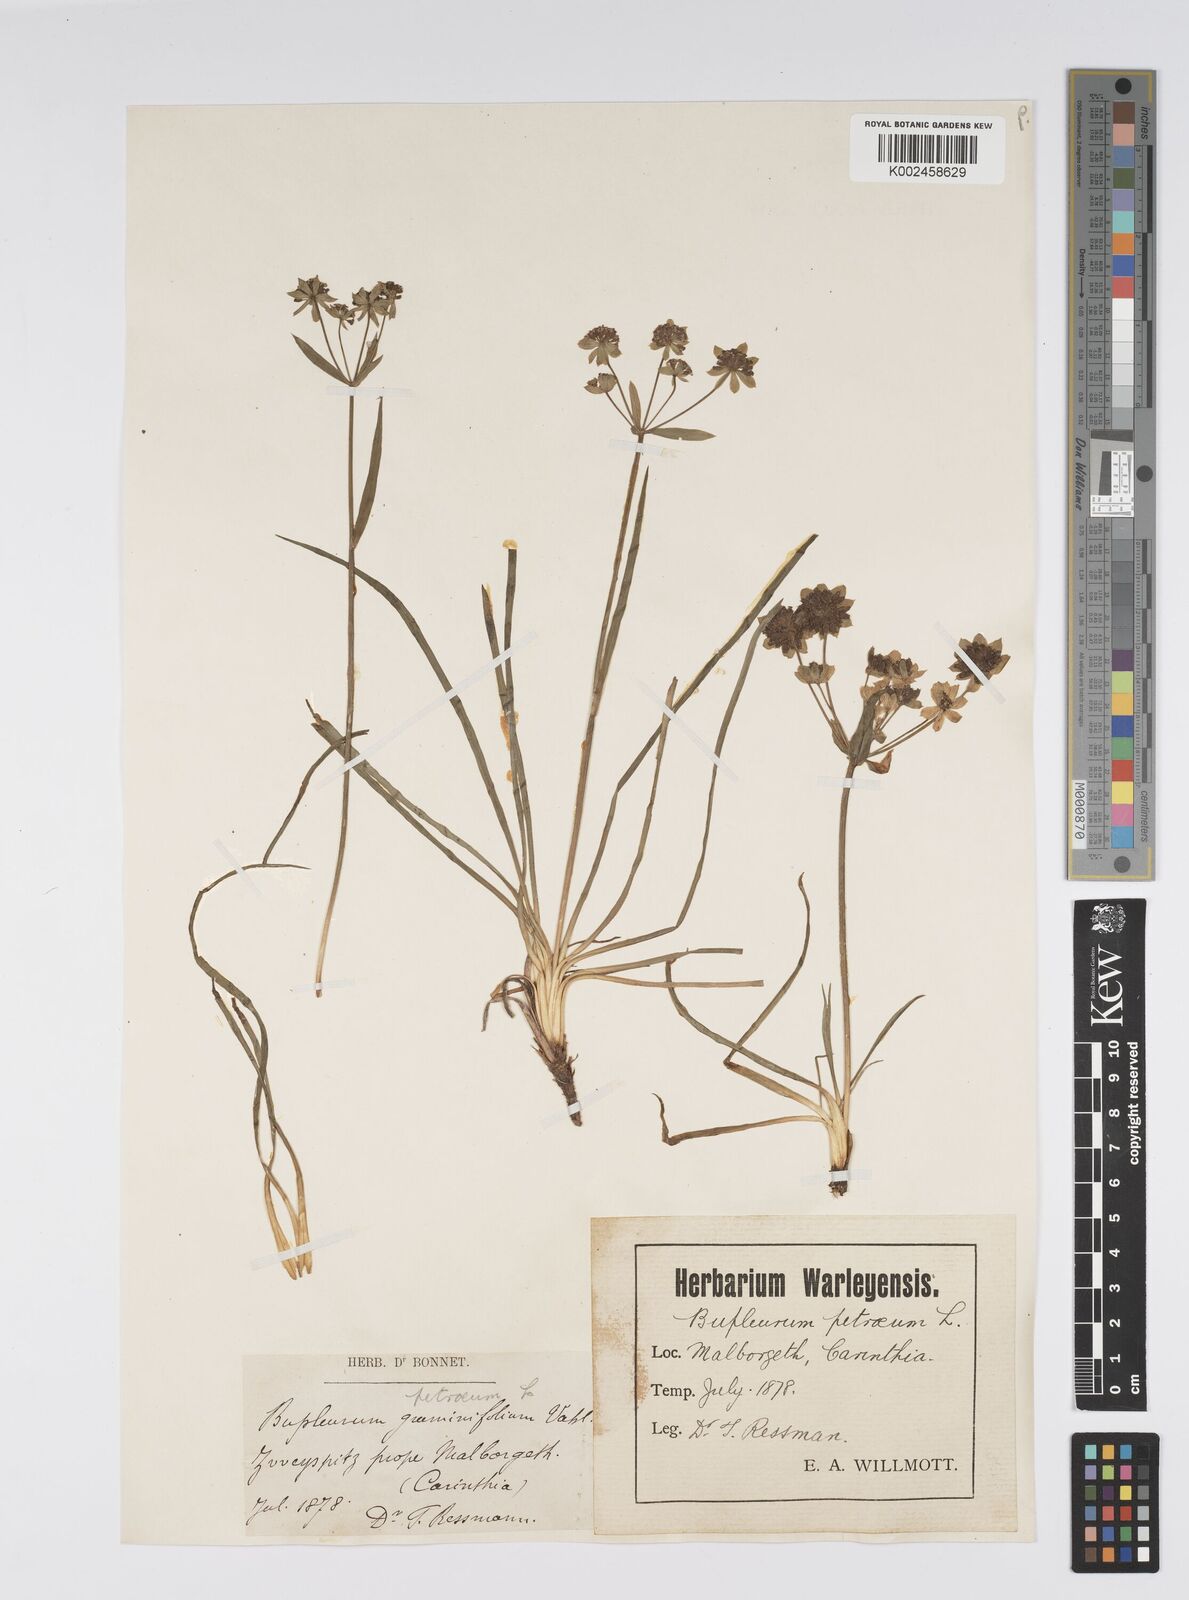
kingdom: Plantae
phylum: Tracheophyta
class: Magnoliopsida
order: Apiales
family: Apiaceae
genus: Bupleurum
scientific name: Bupleurum petraeum
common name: Rock hare's-ear
